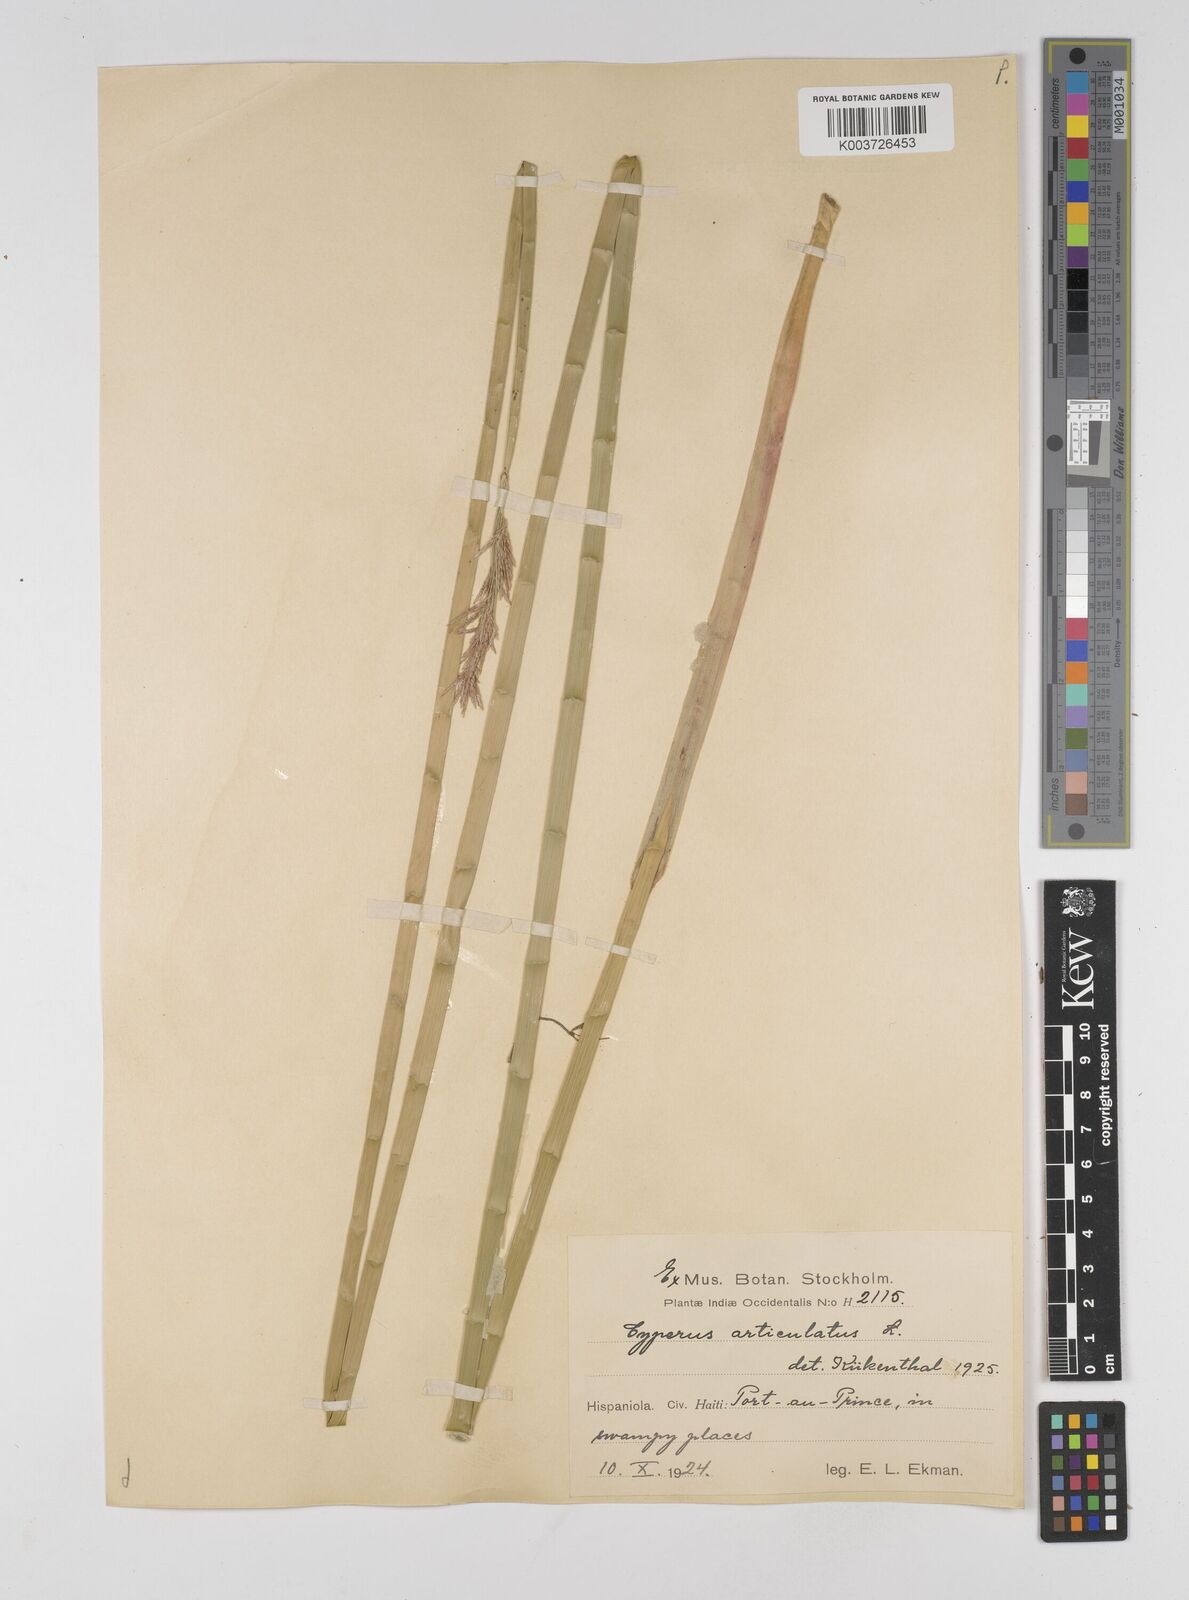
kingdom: Plantae
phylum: Tracheophyta
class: Liliopsida
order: Poales
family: Cyperaceae
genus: Cyperus
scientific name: Cyperus articulatus
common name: Jointed flatsedge
